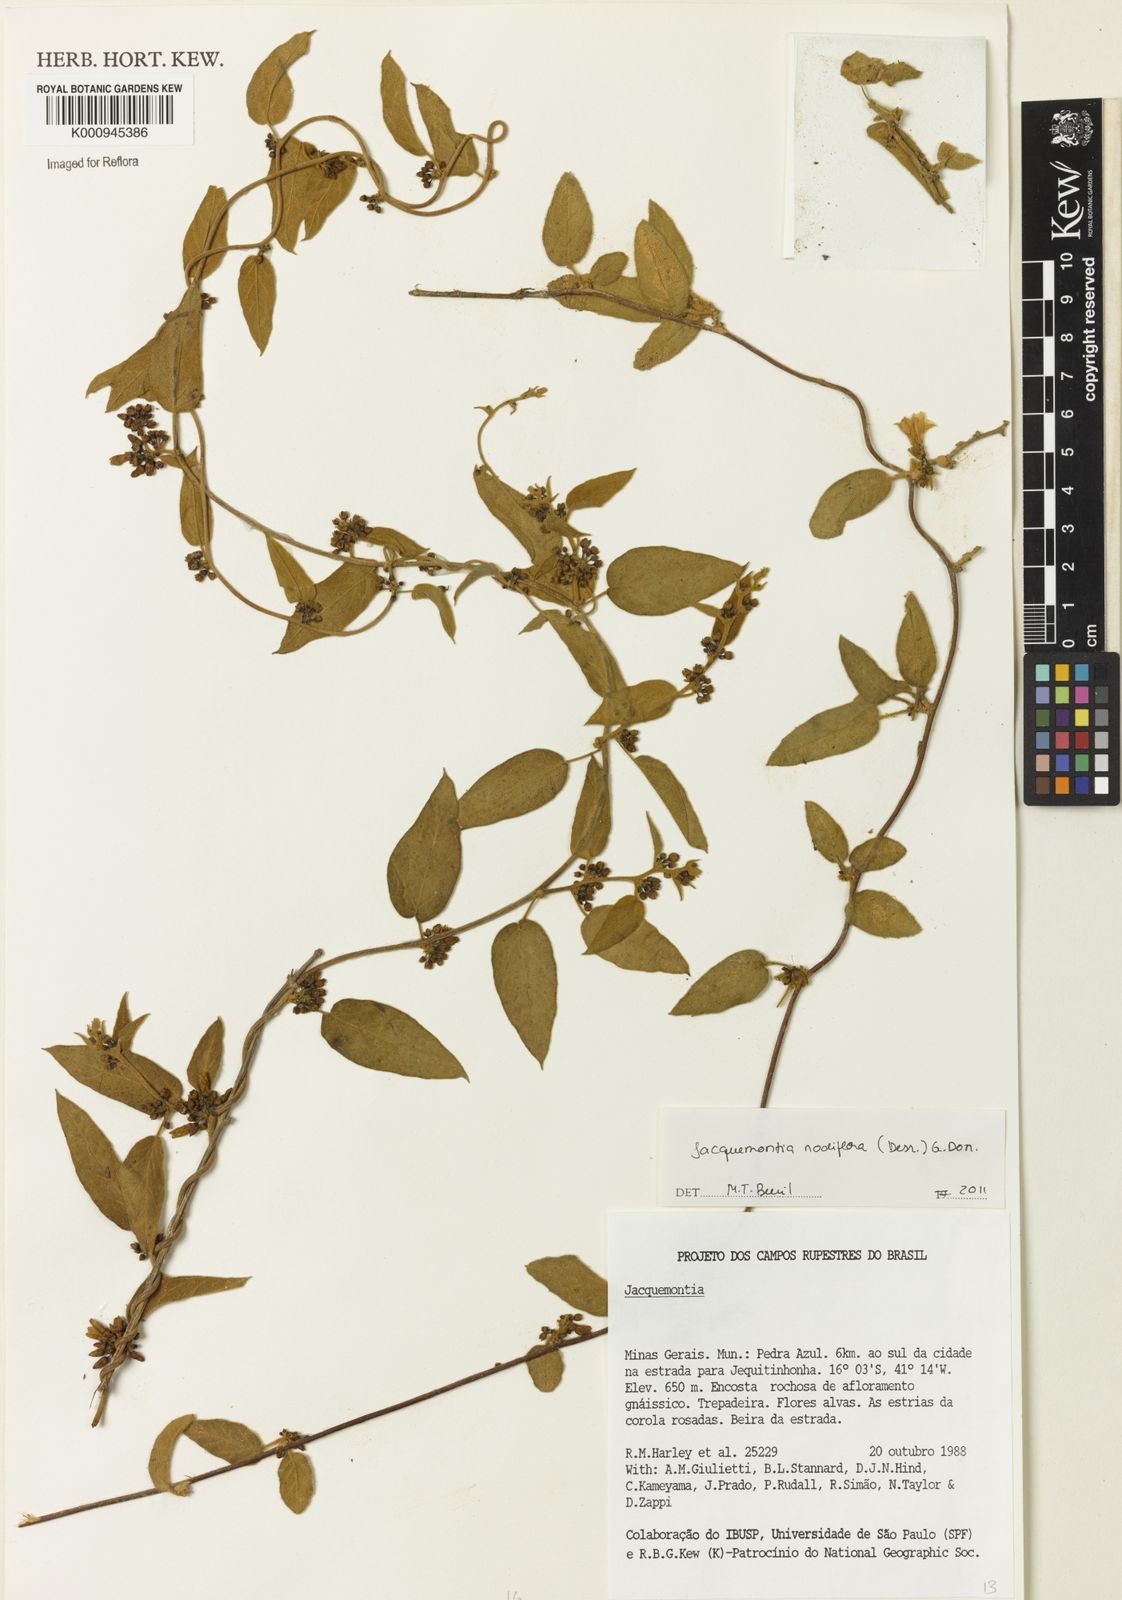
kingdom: Plantae
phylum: Tracheophyta
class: Magnoliopsida
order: Solanales
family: Convolvulaceae
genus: Jacquemontia
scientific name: Jacquemontia nodiflora
